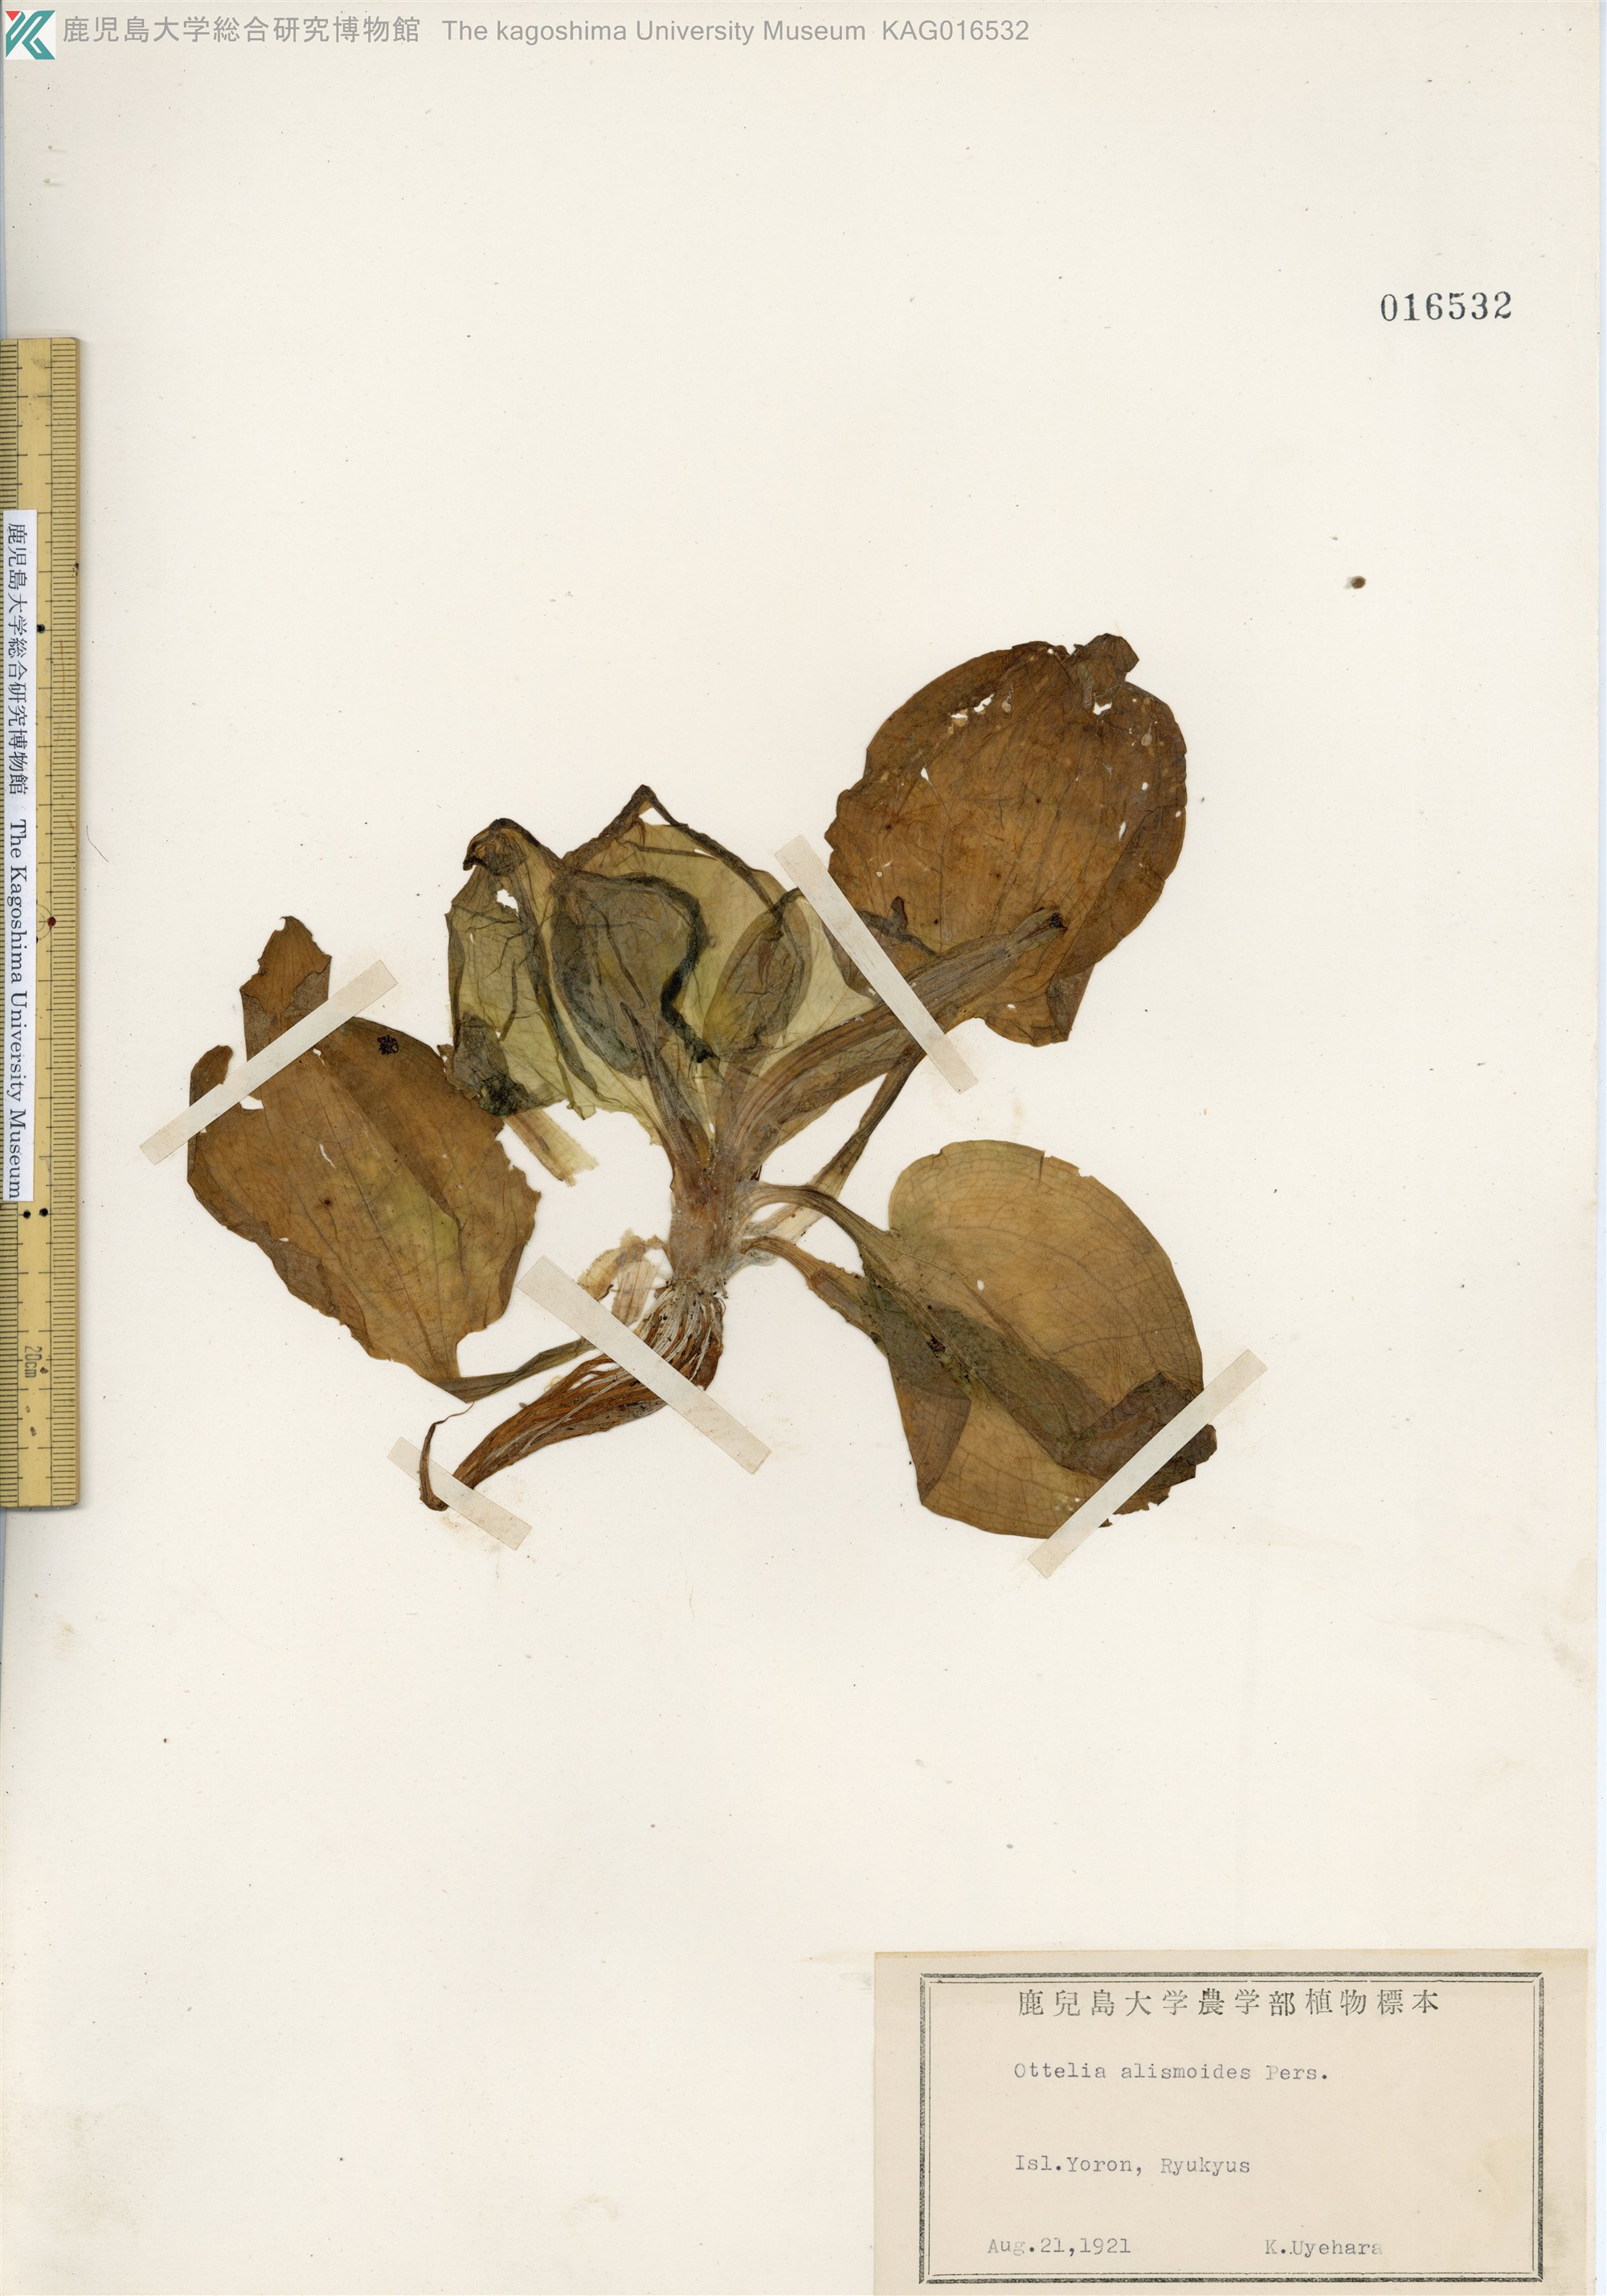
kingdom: Plantae
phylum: Tracheophyta
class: Liliopsida
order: Alismatales
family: Hydrocharitaceae
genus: Ottelia
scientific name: Ottelia alismoides
